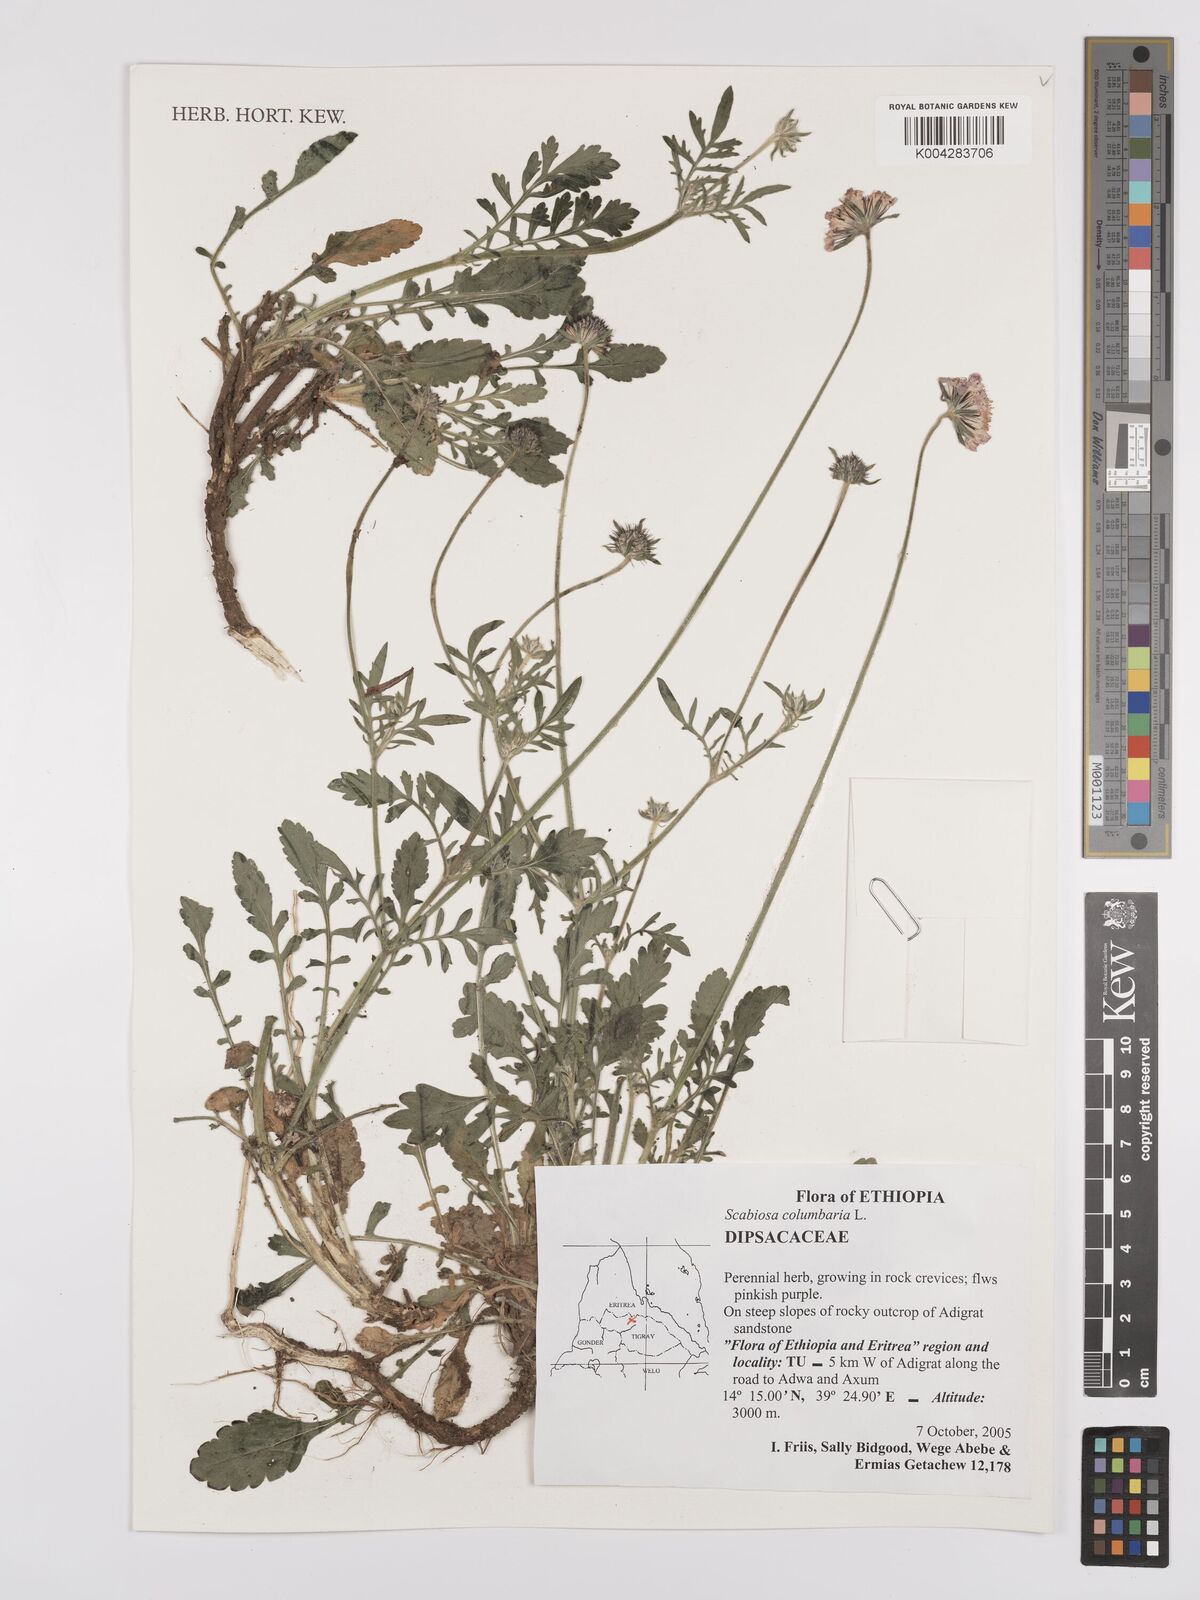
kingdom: Plantae
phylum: Tracheophyta
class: Magnoliopsida
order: Dipsacales
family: Caprifoliaceae
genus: Scabiosa
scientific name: Scabiosa columbaria
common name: Small scabious
